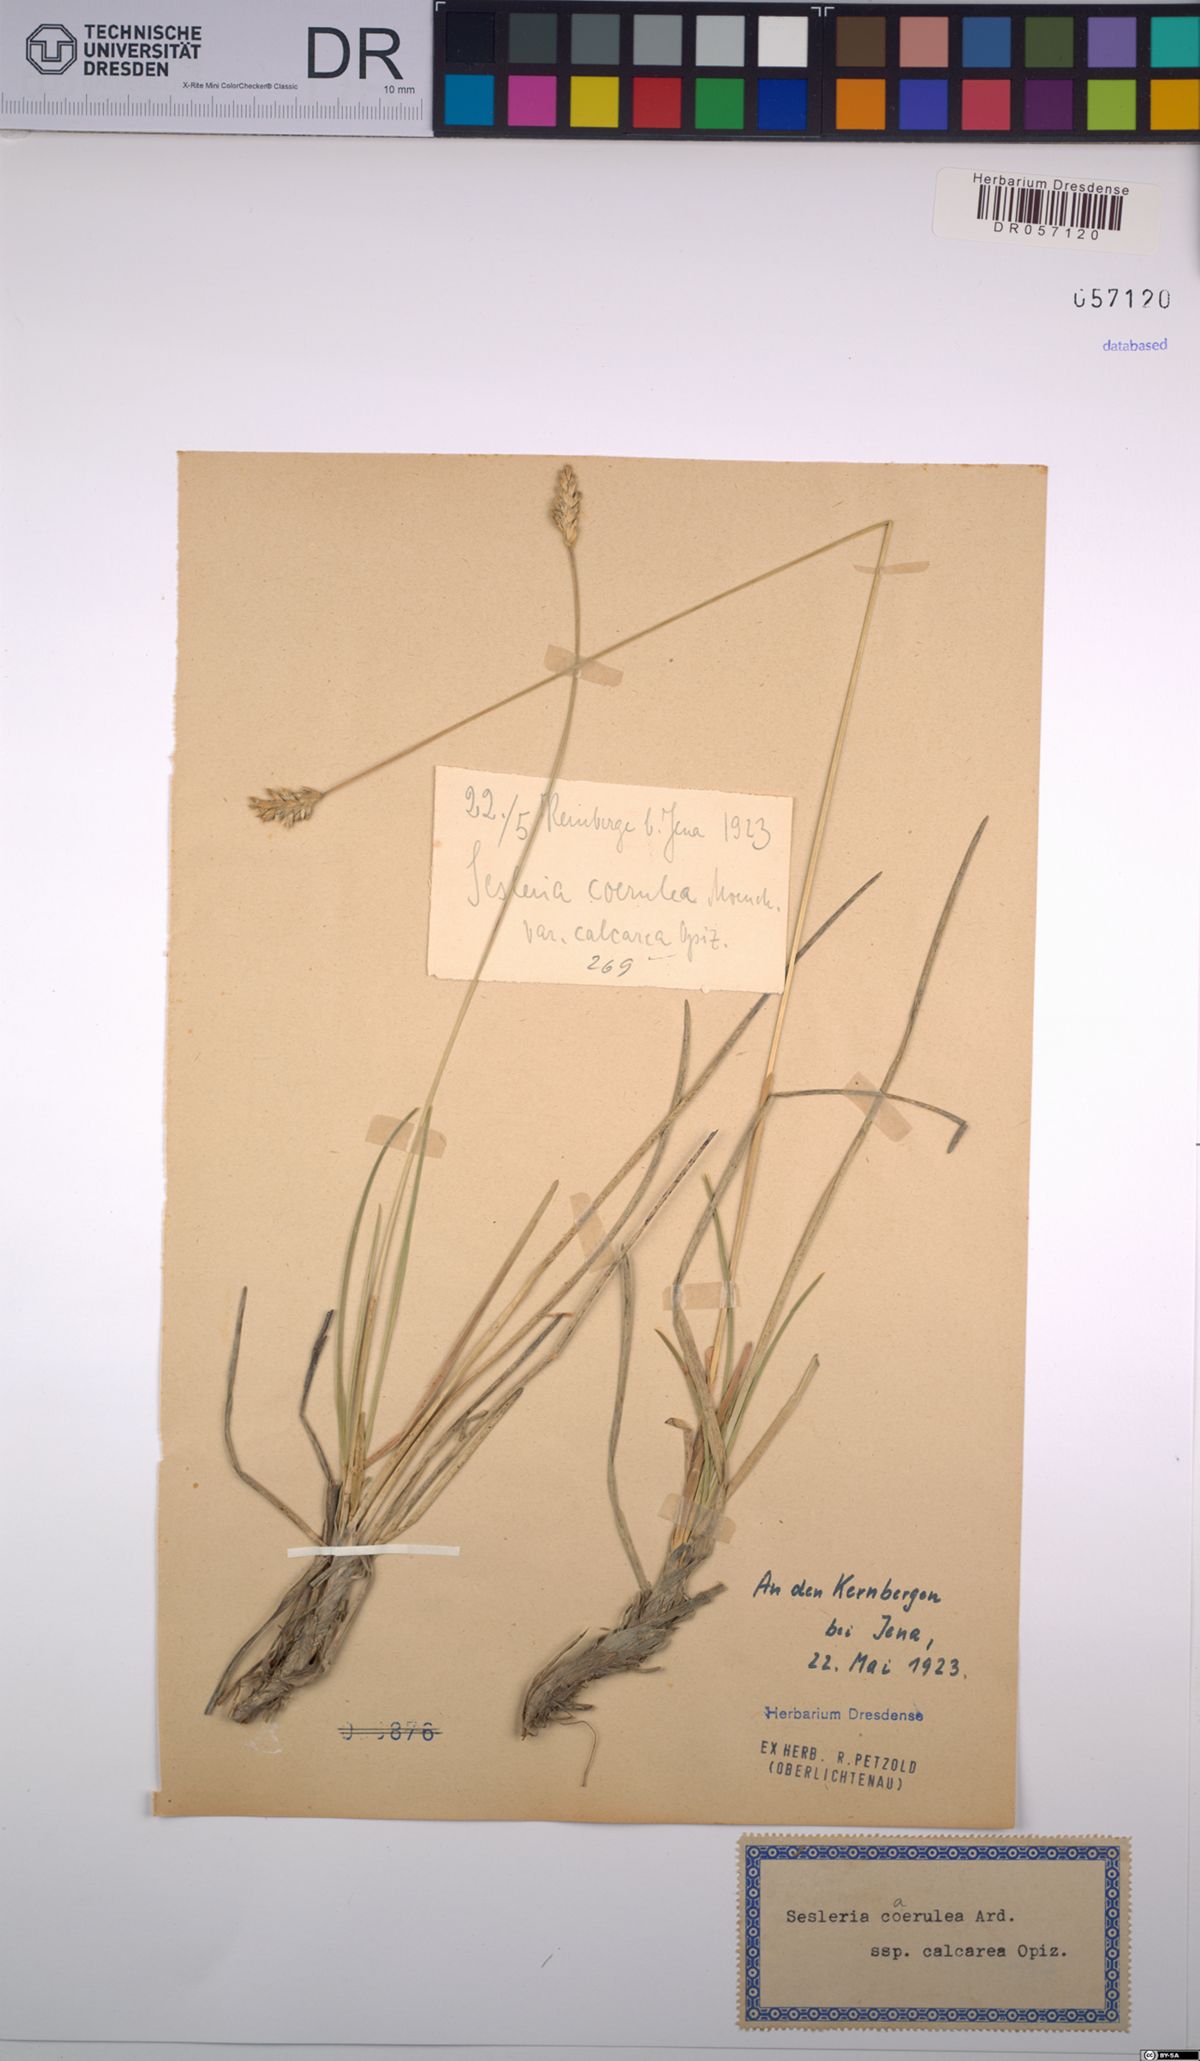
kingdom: Plantae
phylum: Tracheophyta
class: Liliopsida
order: Poales
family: Poaceae
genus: Sesleria
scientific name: Sesleria caerulea
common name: Blue moor-grass
